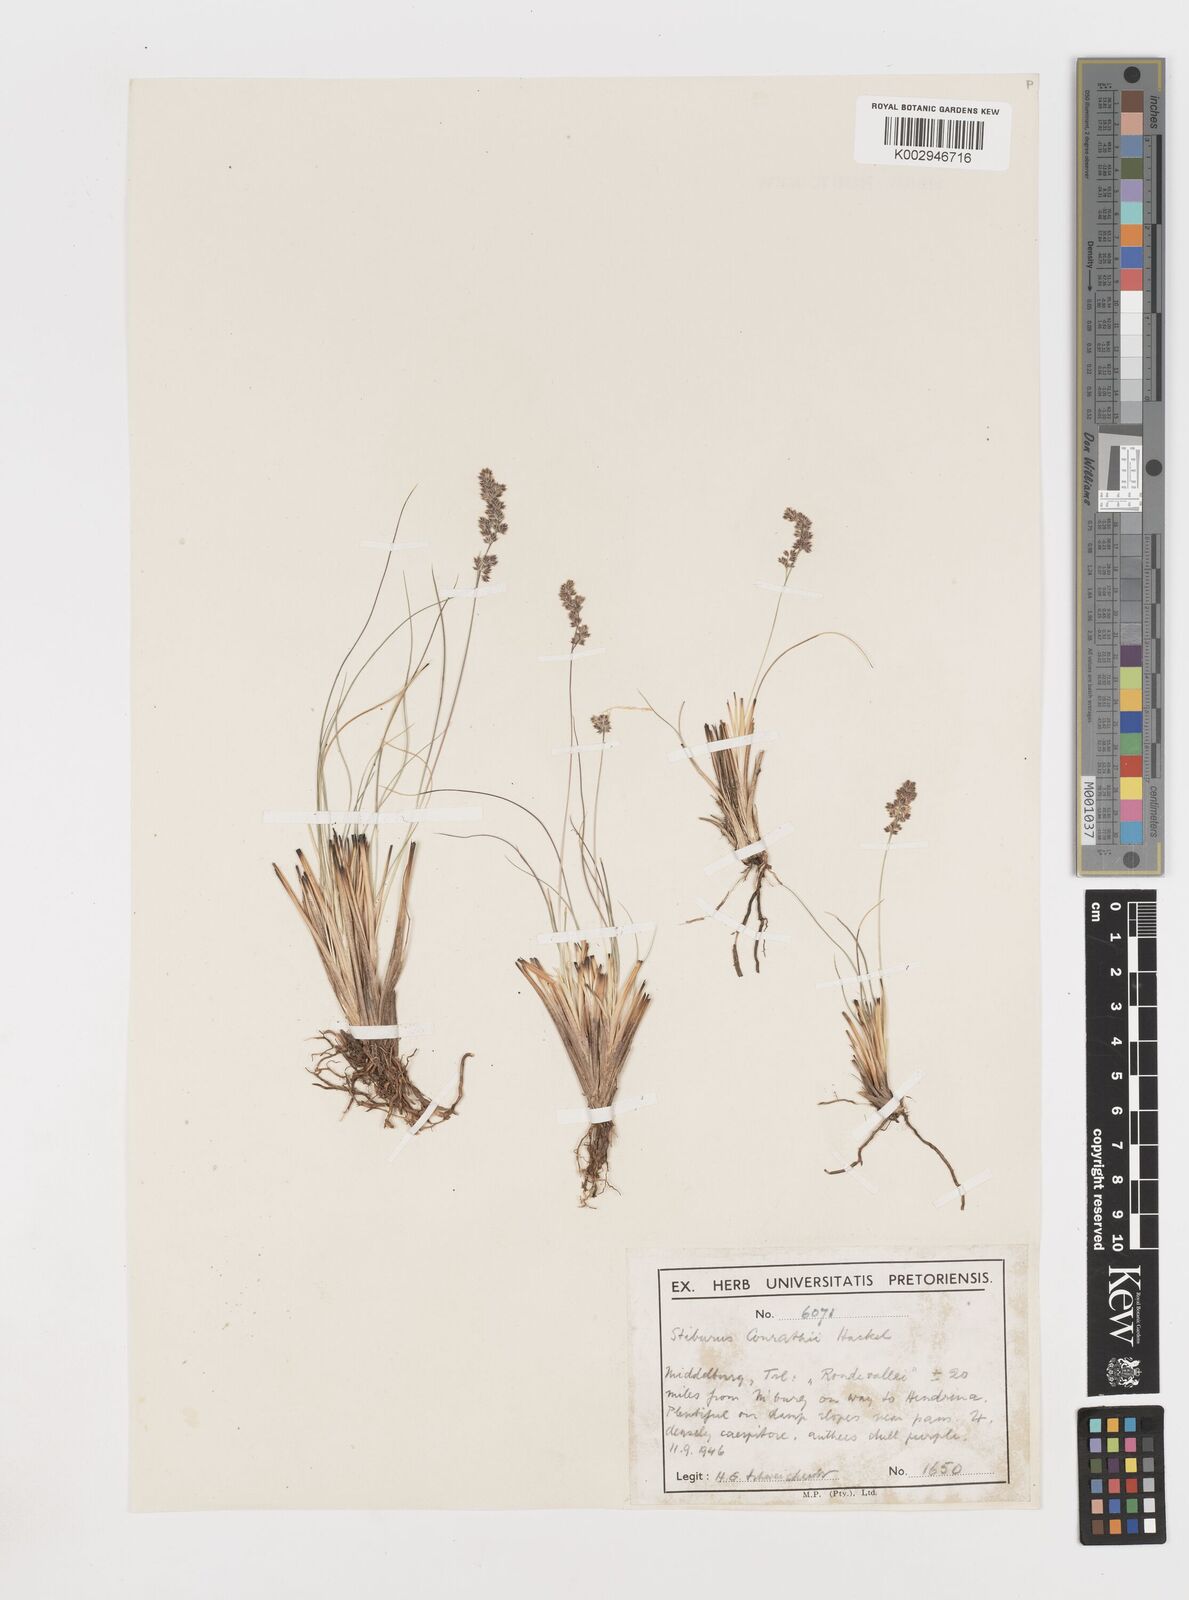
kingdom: Plantae
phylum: Tracheophyta
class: Liliopsida
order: Poales
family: Poaceae
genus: Stiburus
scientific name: Stiburus conrathii
